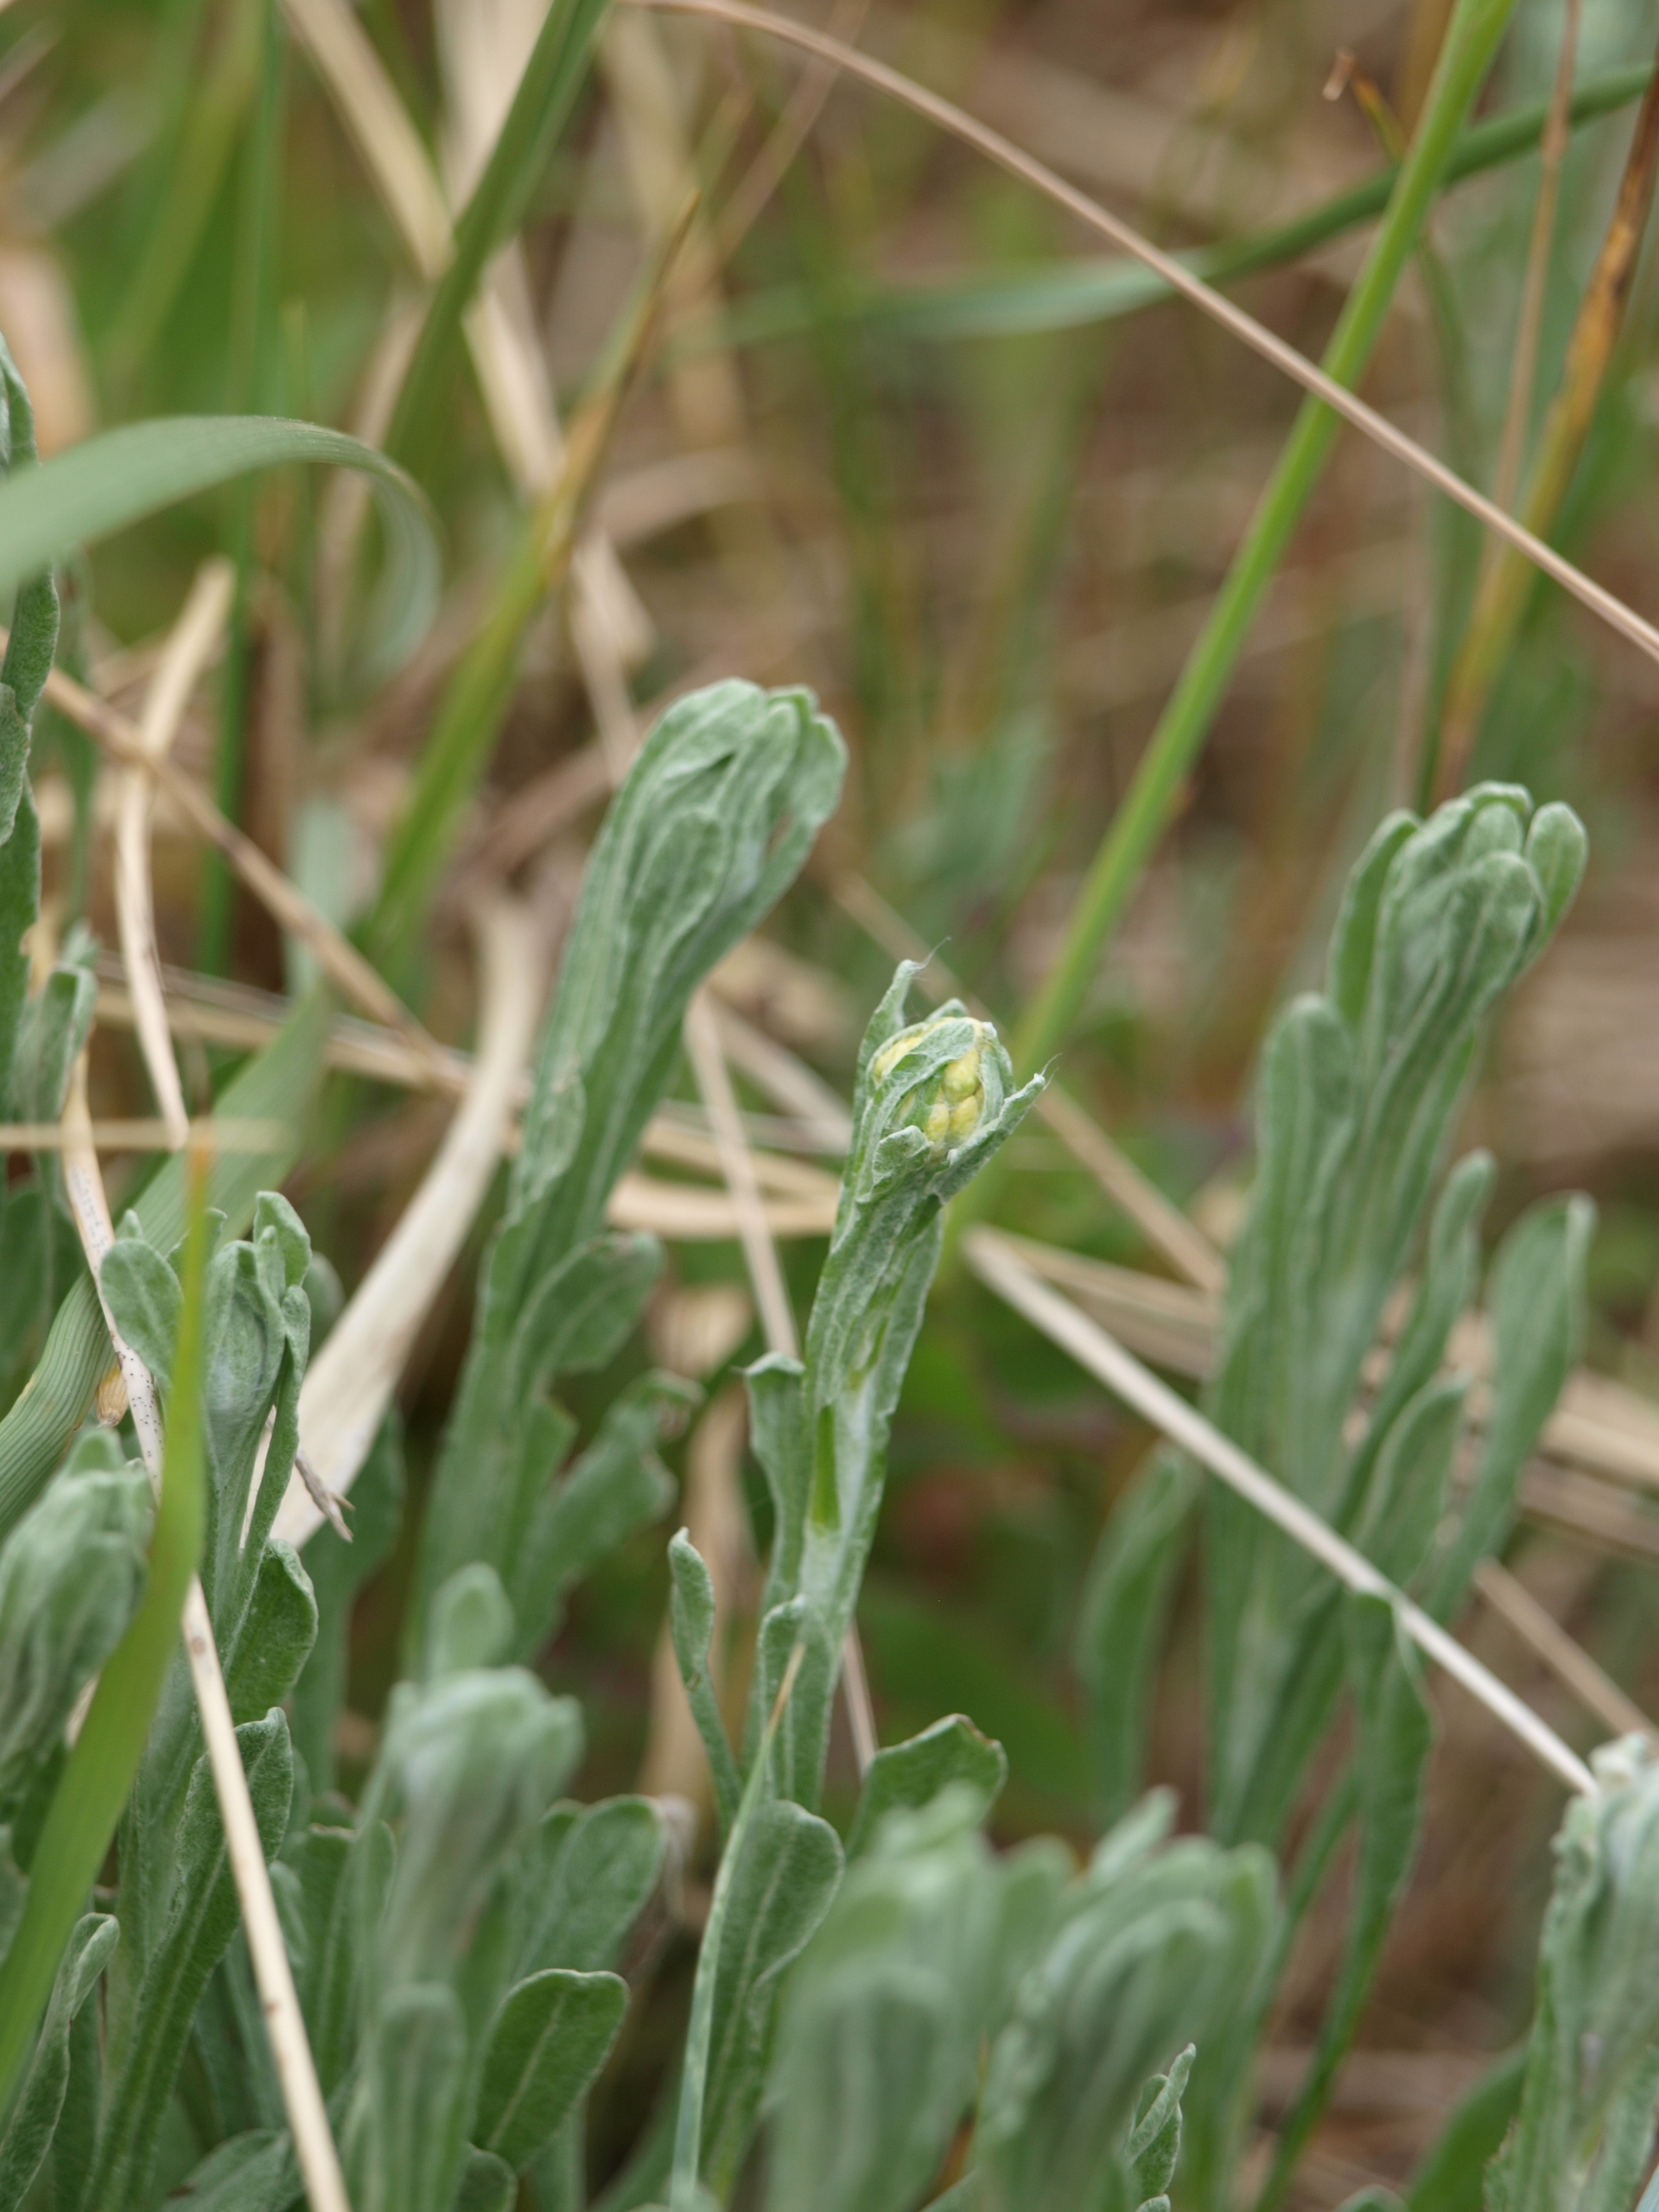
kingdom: Plantae
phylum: Tracheophyta
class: Magnoliopsida
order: Asterales
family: Asteraceae
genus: Helichrysum
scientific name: Helichrysum arenarium
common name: Gul evighedsblomst
